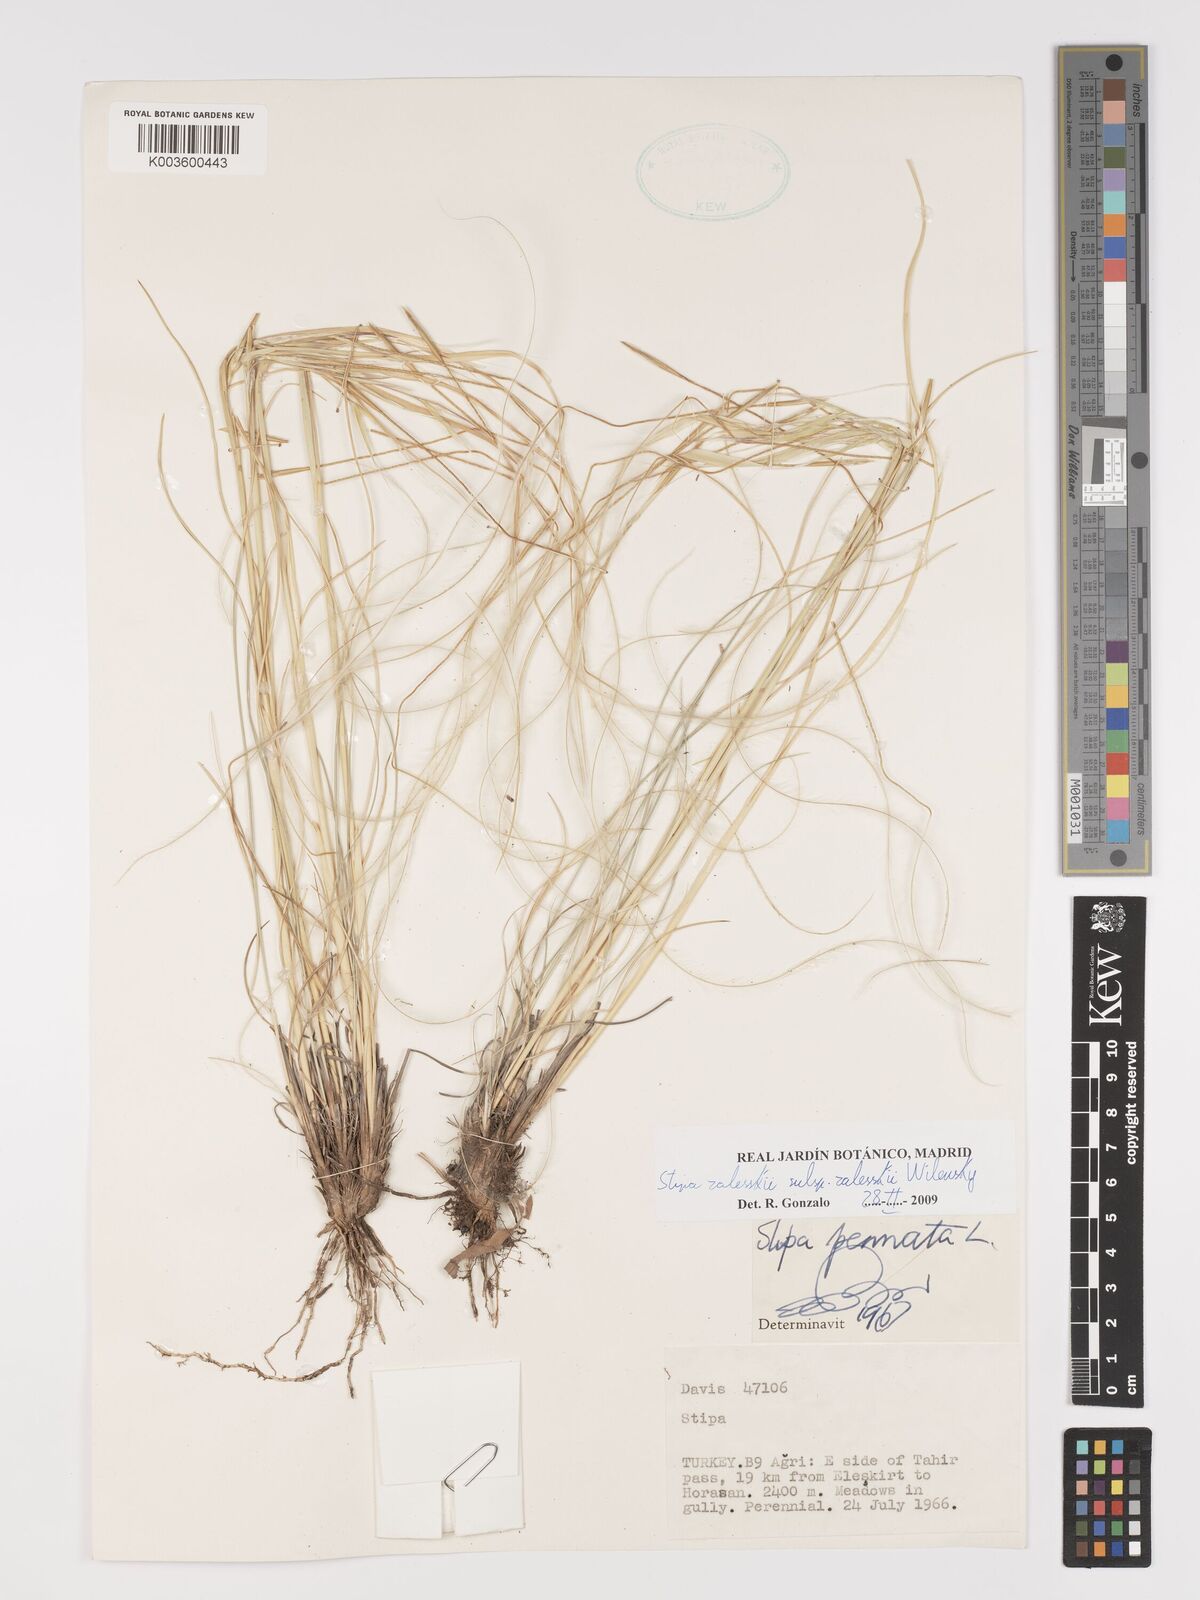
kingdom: Plantae
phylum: Tracheophyta
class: Liliopsida
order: Poales
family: Poaceae
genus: Stipa
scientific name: Stipa zalesskyi
